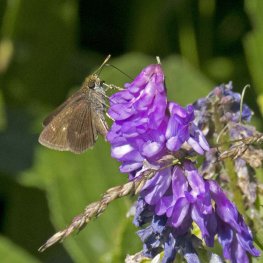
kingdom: Animalia
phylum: Arthropoda
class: Insecta
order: Lepidoptera
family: Hesperiidae
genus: Euphyes
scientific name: Euphyes vestris
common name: Dun Skipper
